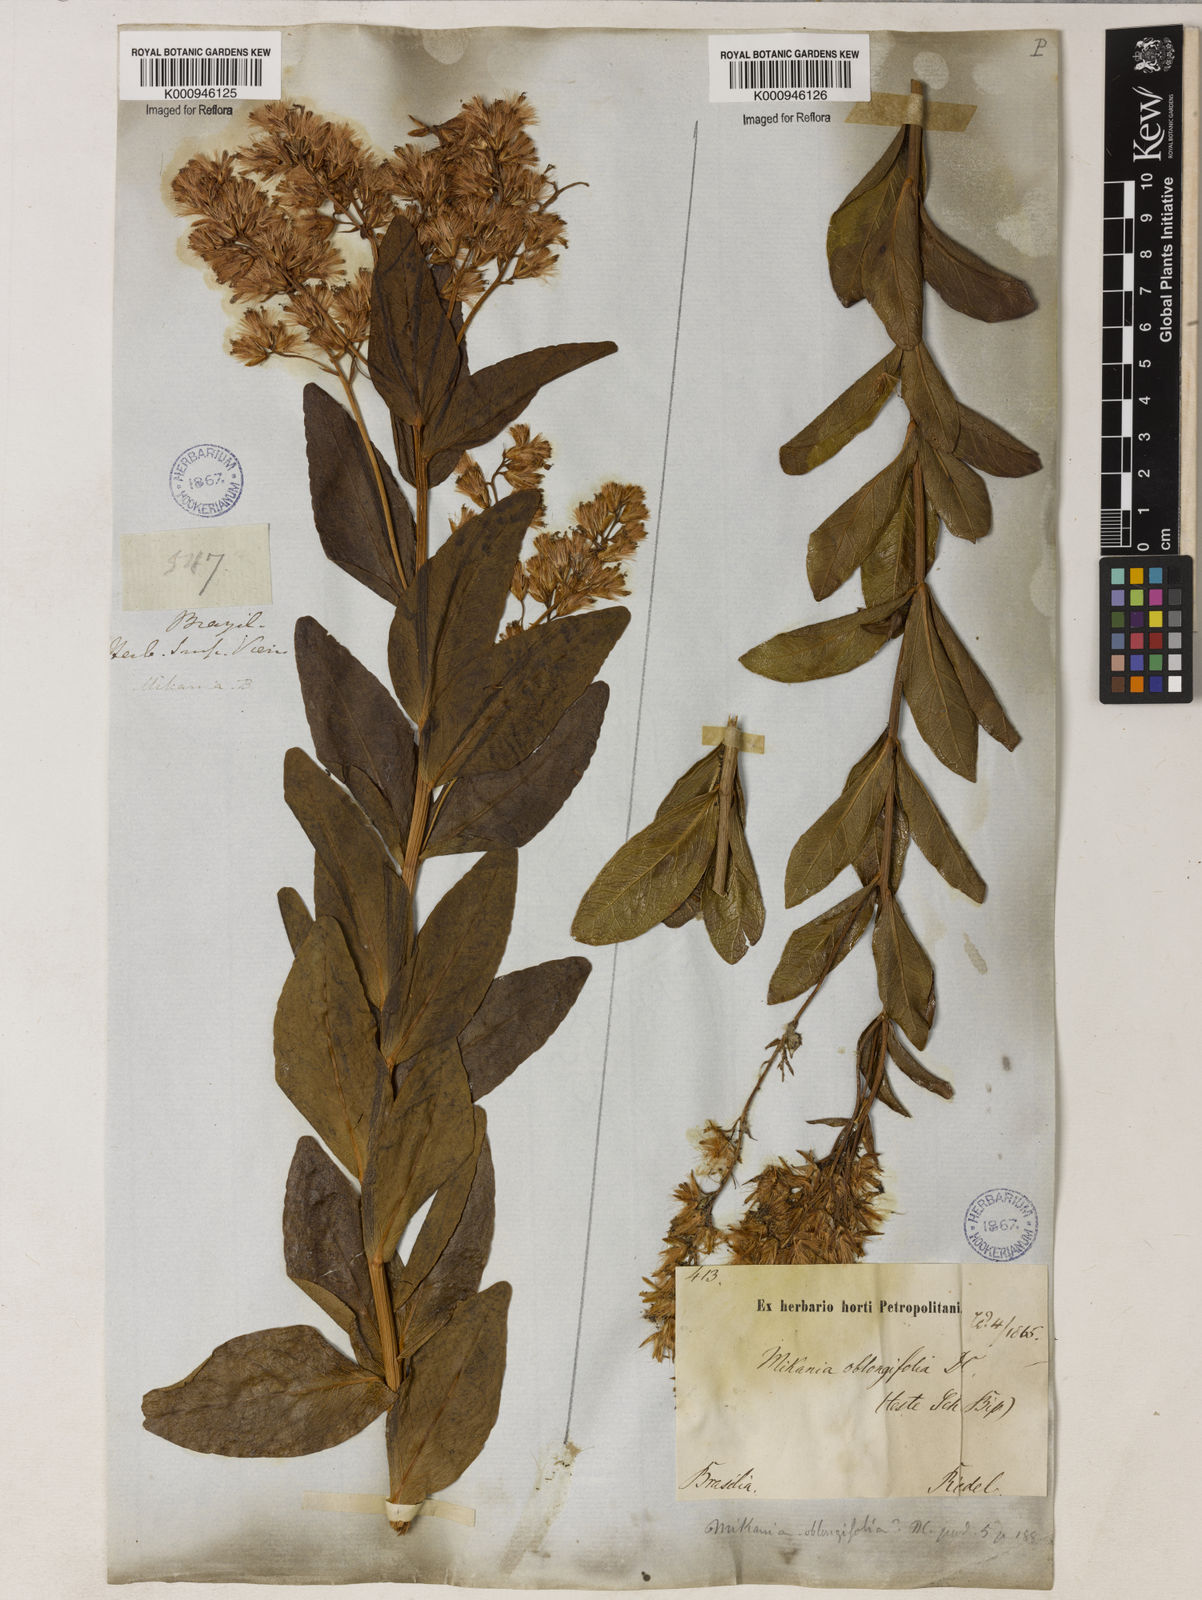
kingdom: Plantae
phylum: Tracheophyta
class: Magnoliopsida
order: Asterales
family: Asteraceae
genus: Mikania
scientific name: Mikania oblongifolia
